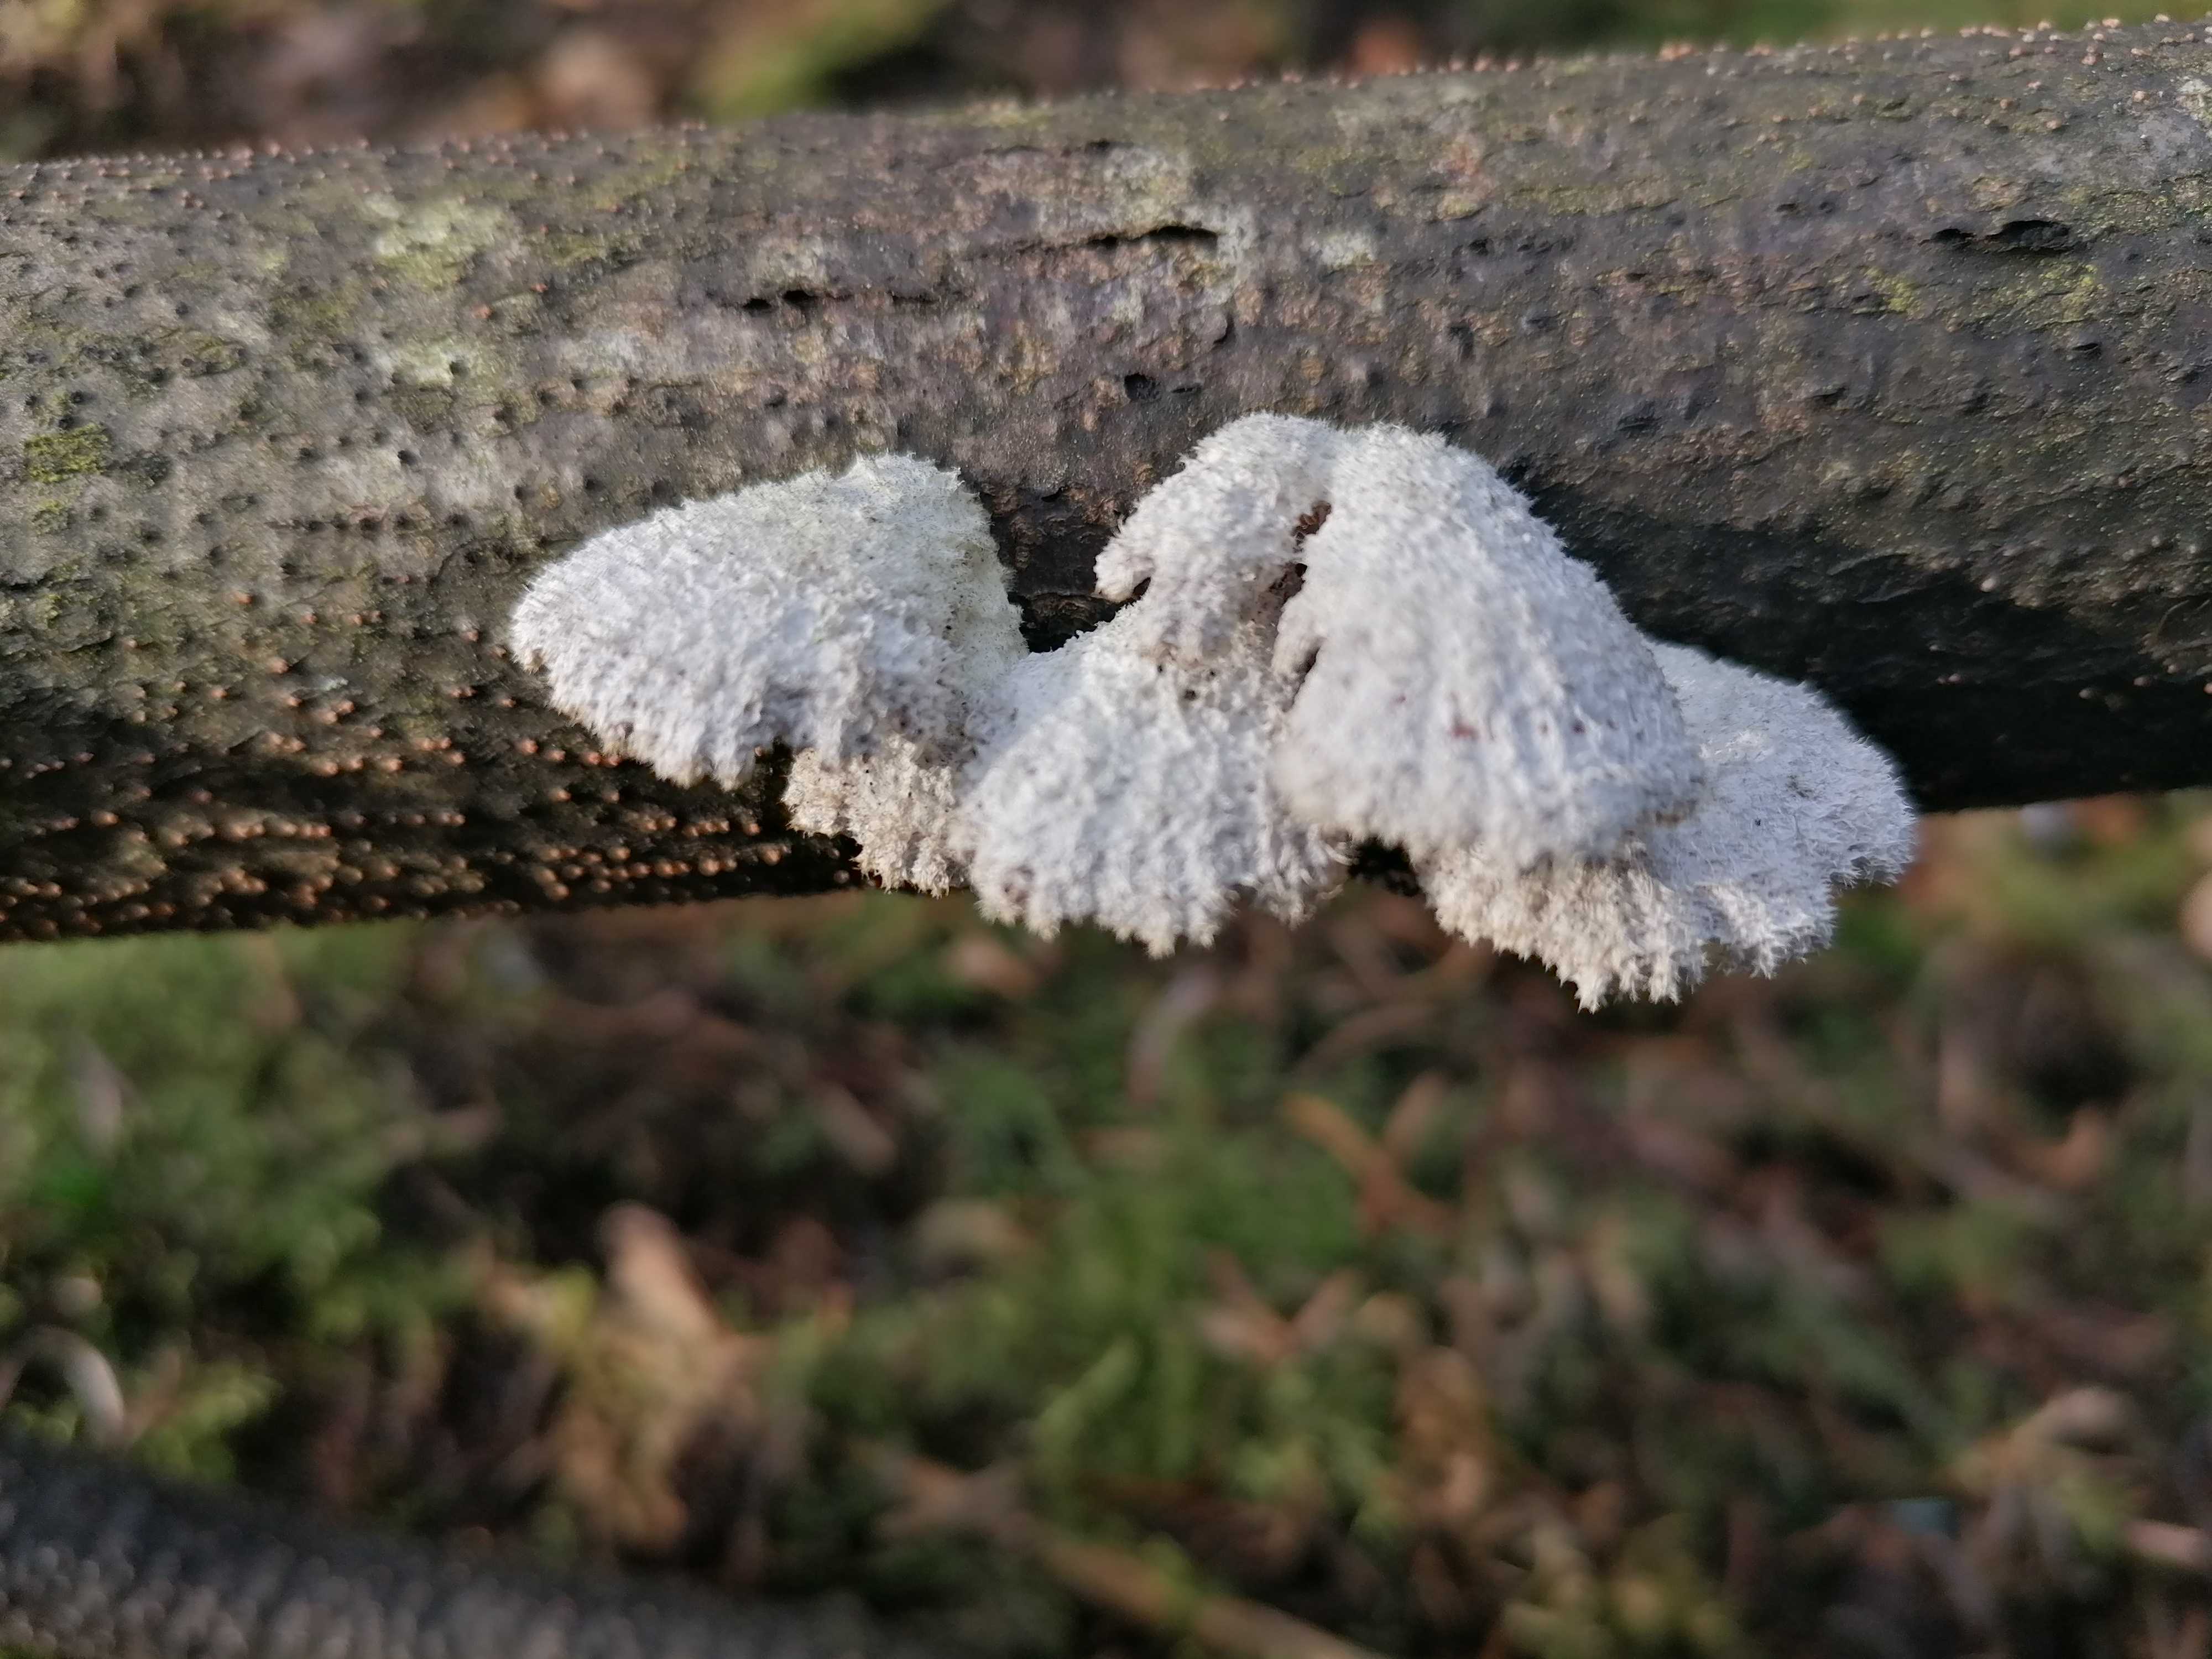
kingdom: Fungi
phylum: Basidiomycota
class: Agaricomycetes
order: Agaricales
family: Schizophyllaceae
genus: Schizophyllum
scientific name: Schizophyllum commune
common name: kløvblad
